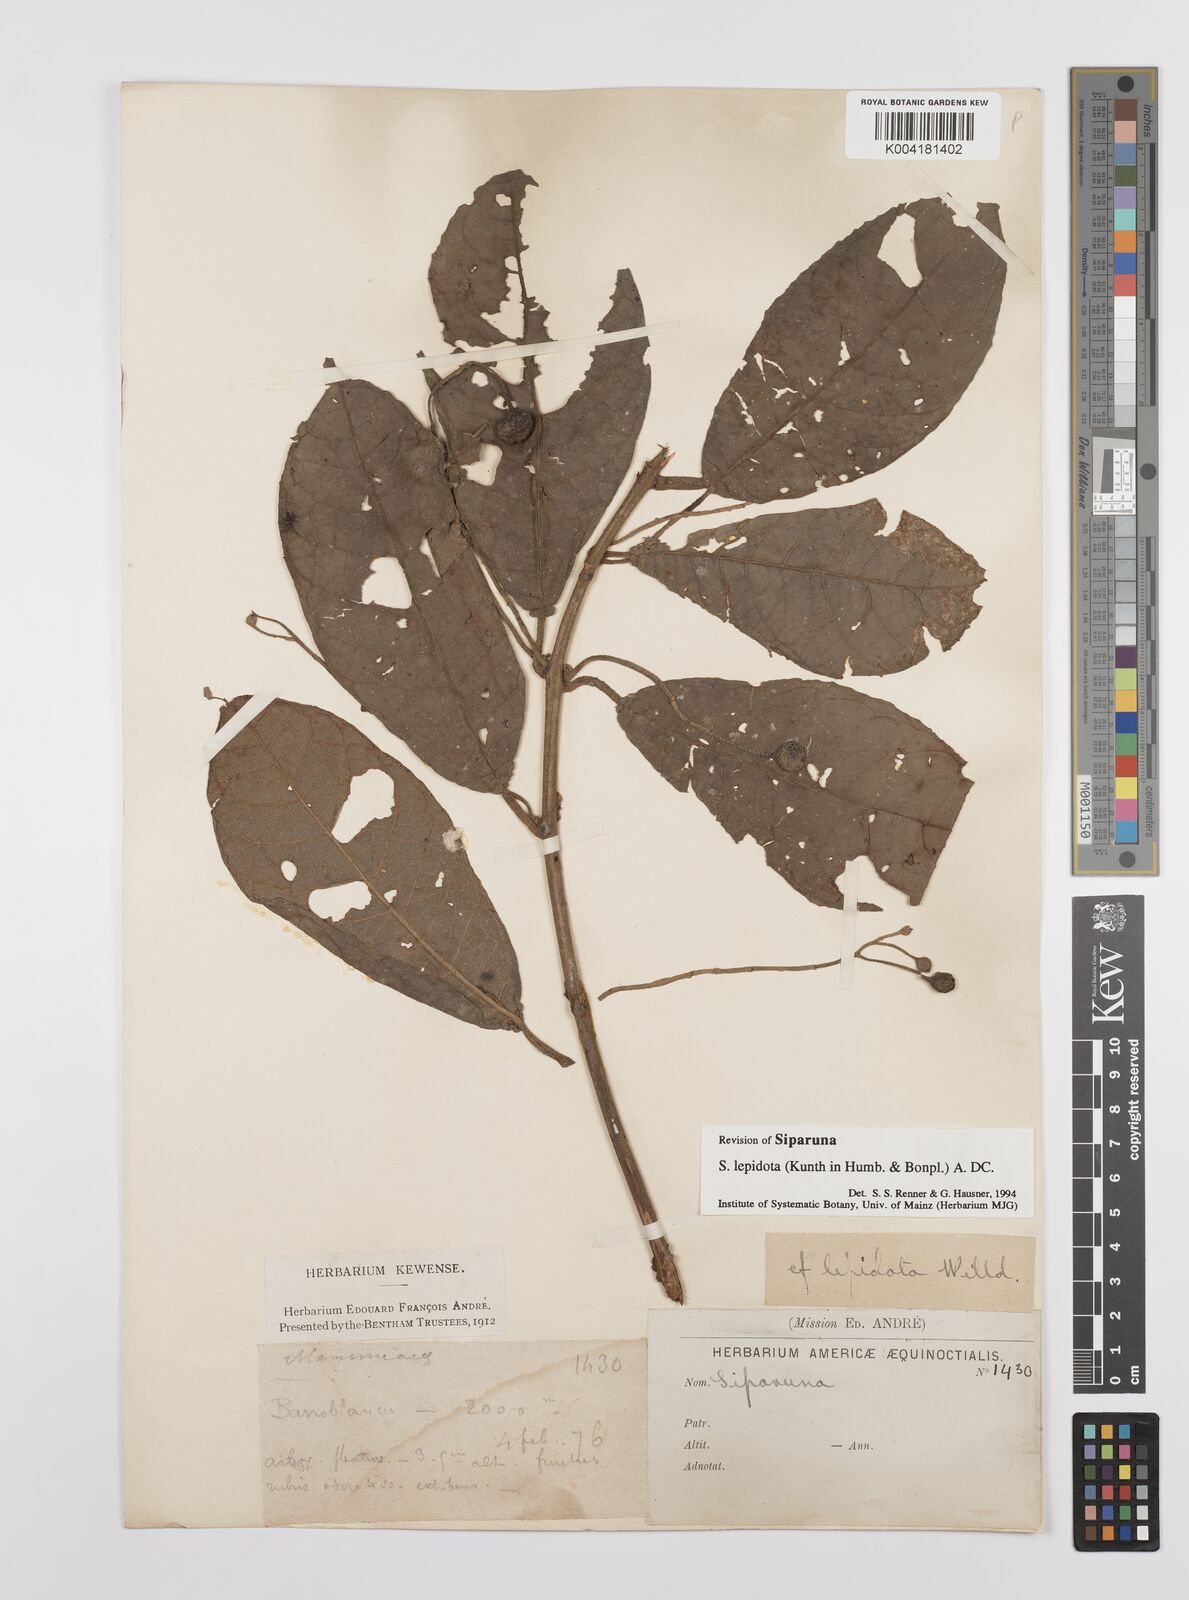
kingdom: Plantae
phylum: Tracheophyta
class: Magnoliopsida
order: Laurales
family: Siparunaceae
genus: Siparuna
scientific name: Siparuna lepidota
